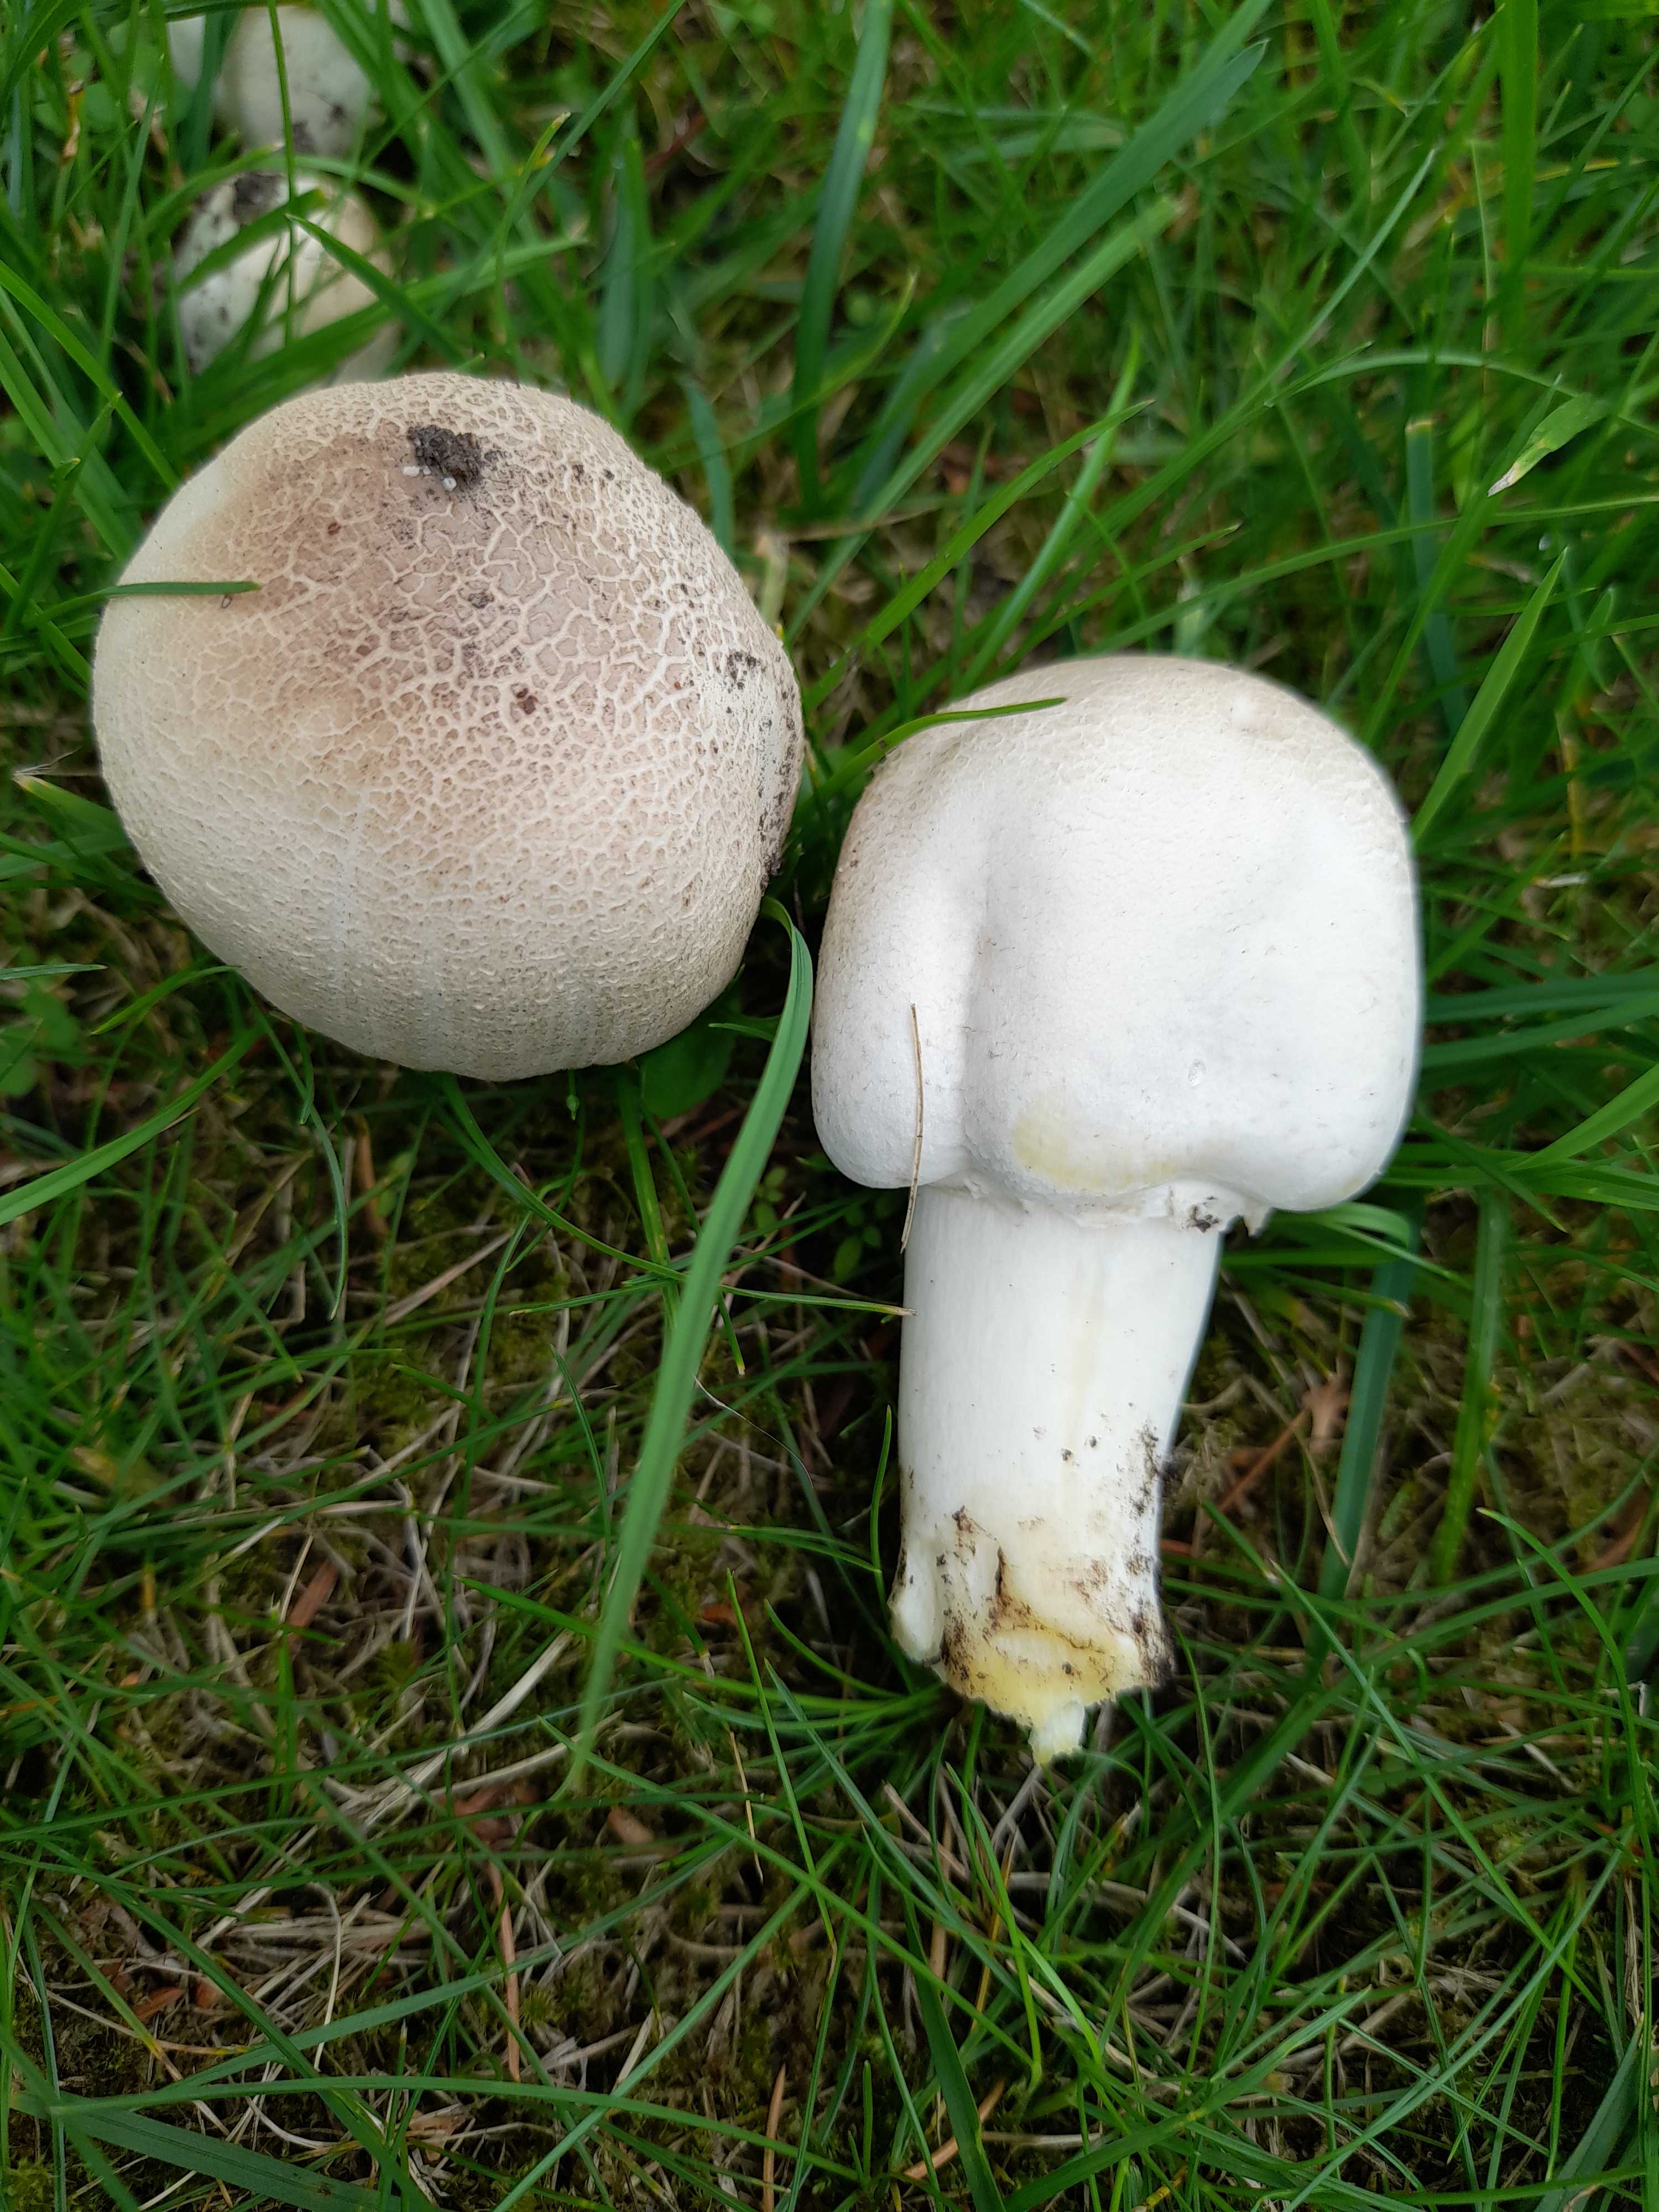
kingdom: Fungi
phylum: Basidiomycota
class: Agaricomycetes
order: Agaricales
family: Agaricaceae
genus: Agaricus
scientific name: Agaricus xanthodermus
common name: karbol-champignon
